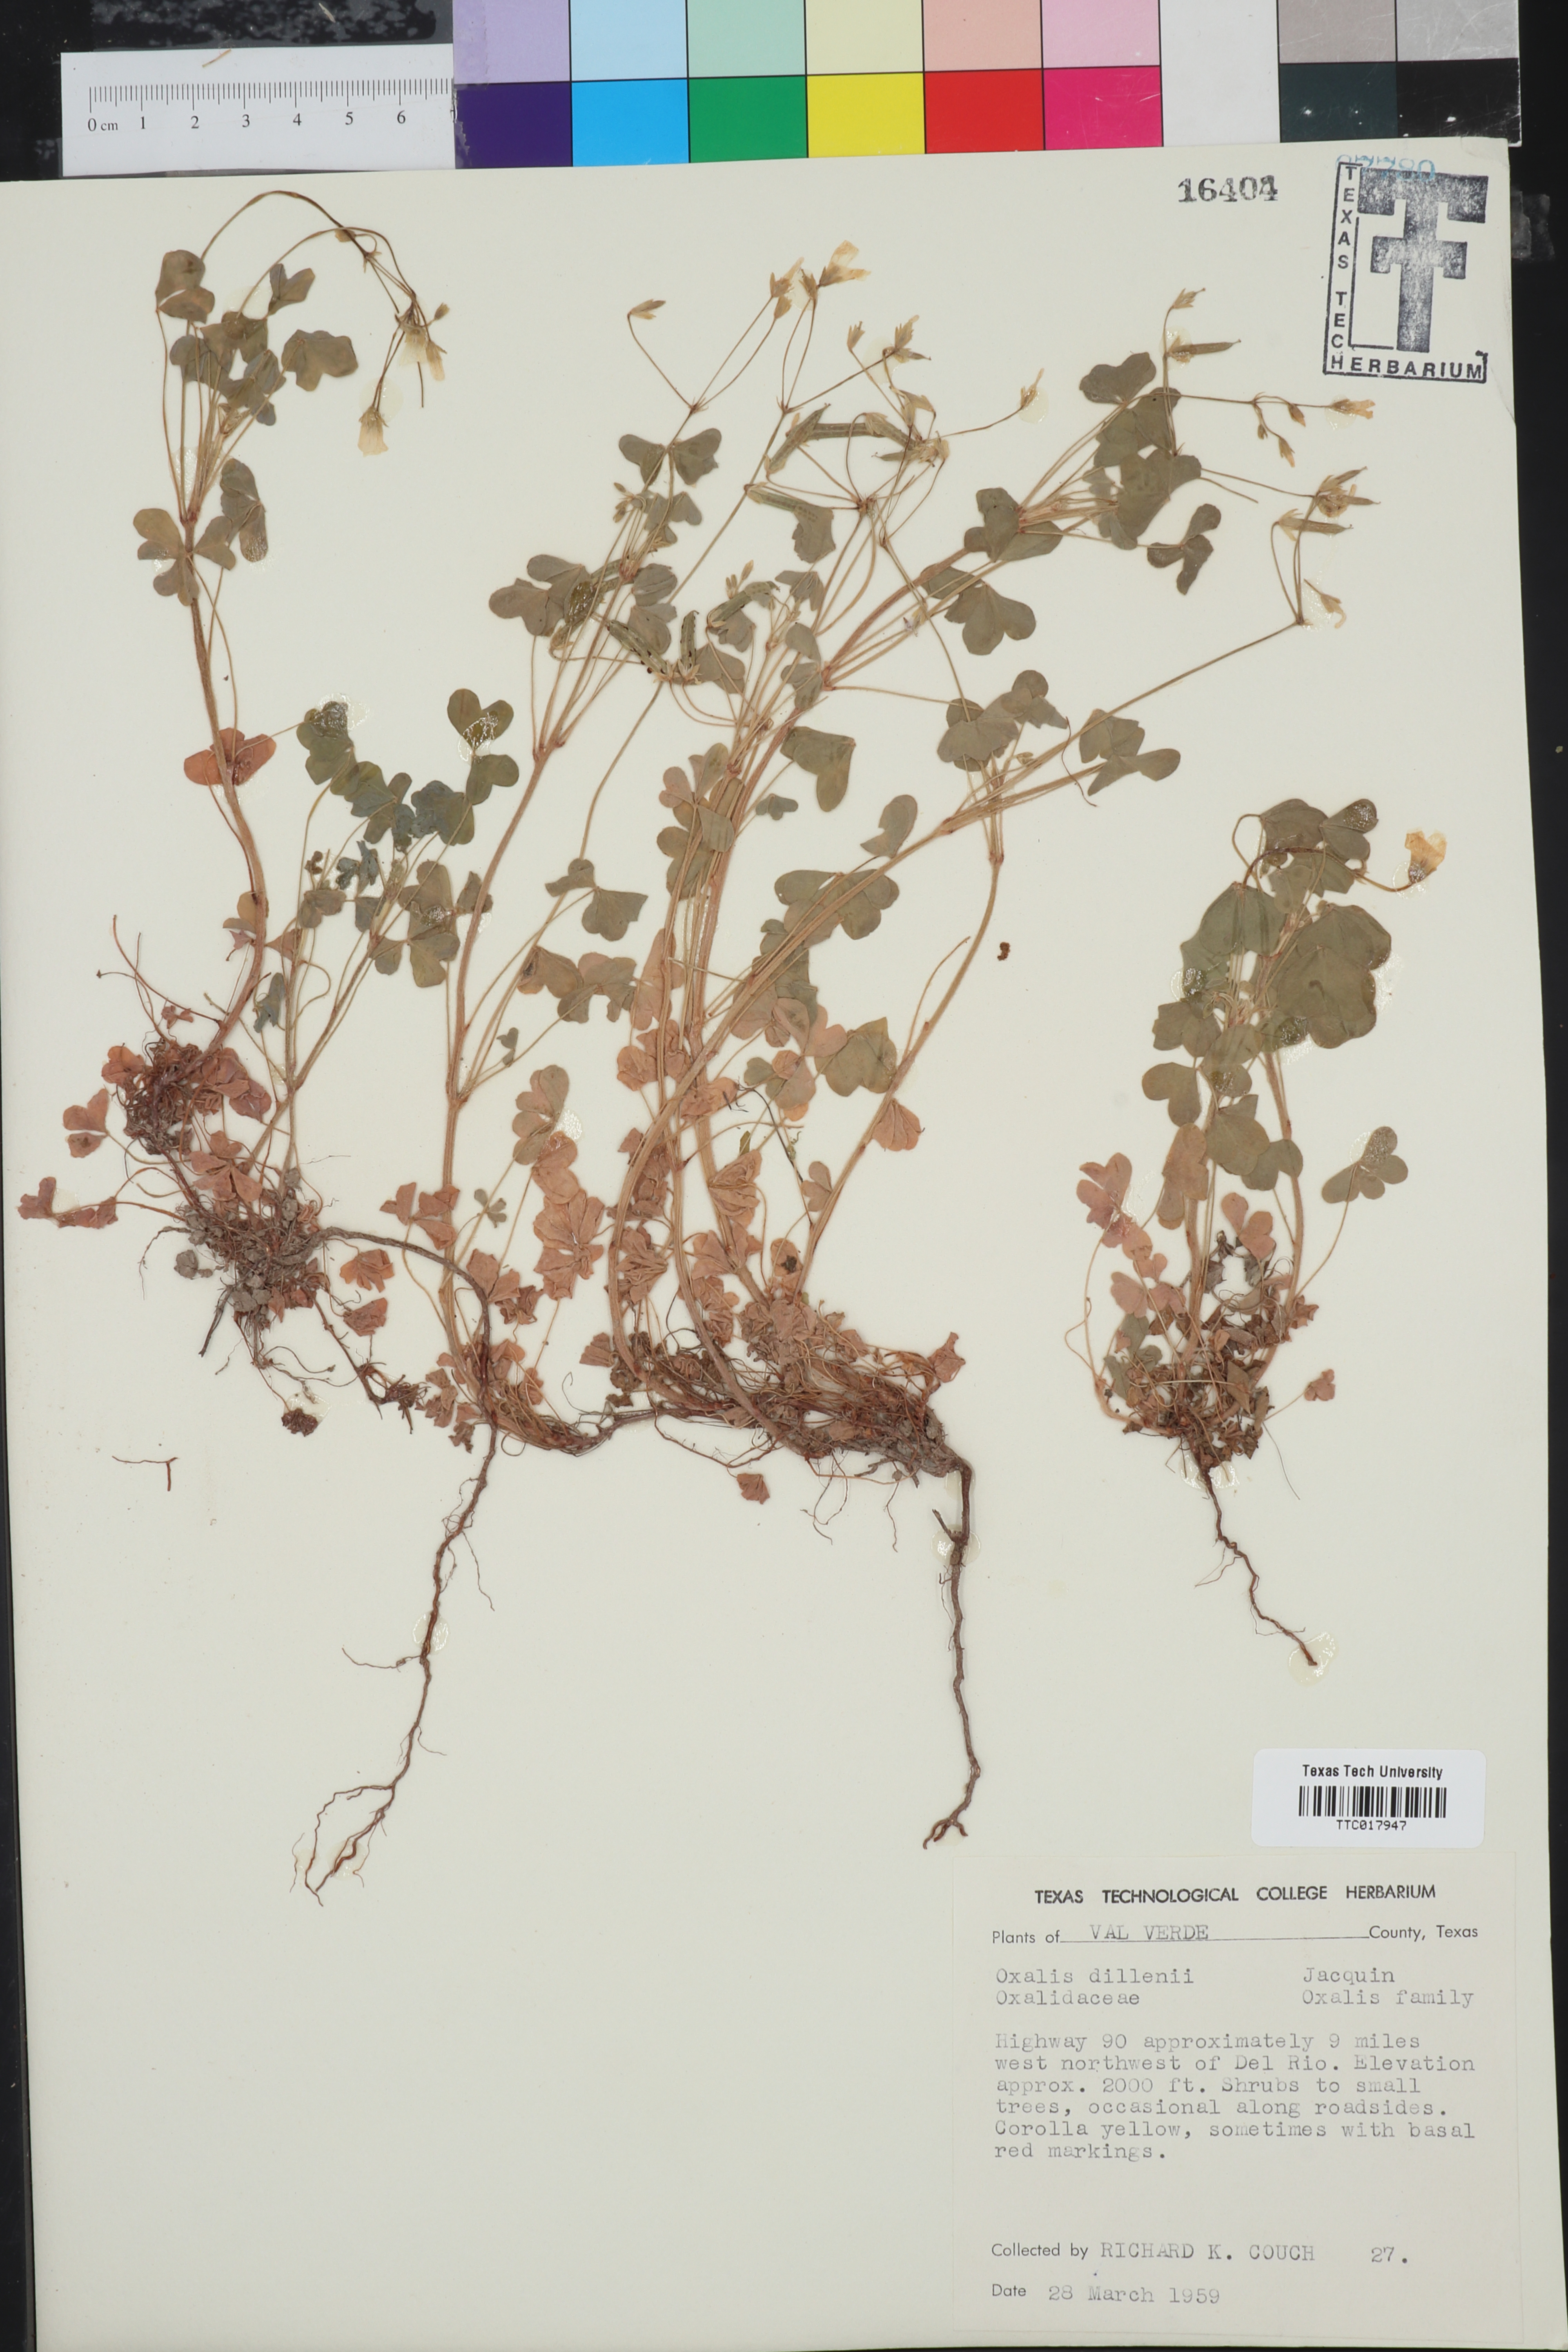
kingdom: Plantae
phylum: Tracheophyta
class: Magnoliopsida
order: Oxalidales
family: Oxalidaceae
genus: Oxalis
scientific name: Oxalis dillenii
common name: Sussex yellow-sorrel
